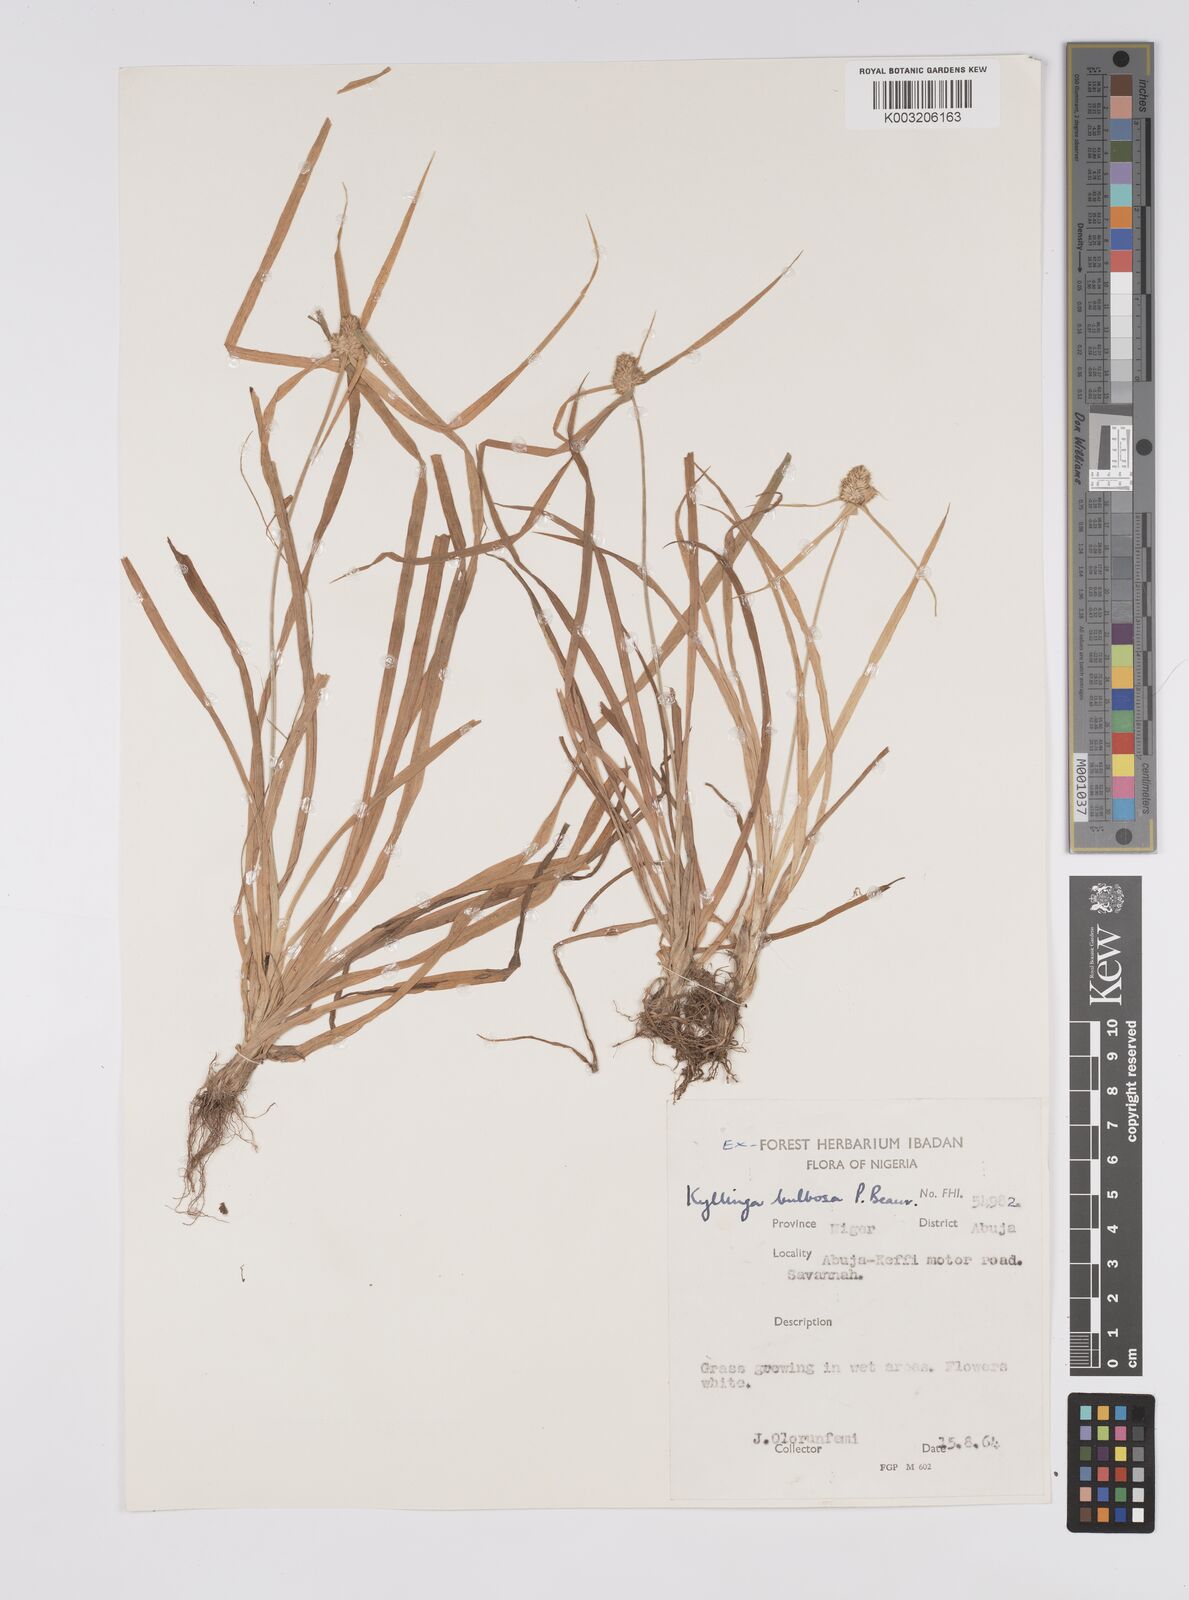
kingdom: Plantae
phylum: Tracheophyta
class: Liliopsida
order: Poales
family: Cyperaceae
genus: Cyperus
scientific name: Cyperus
